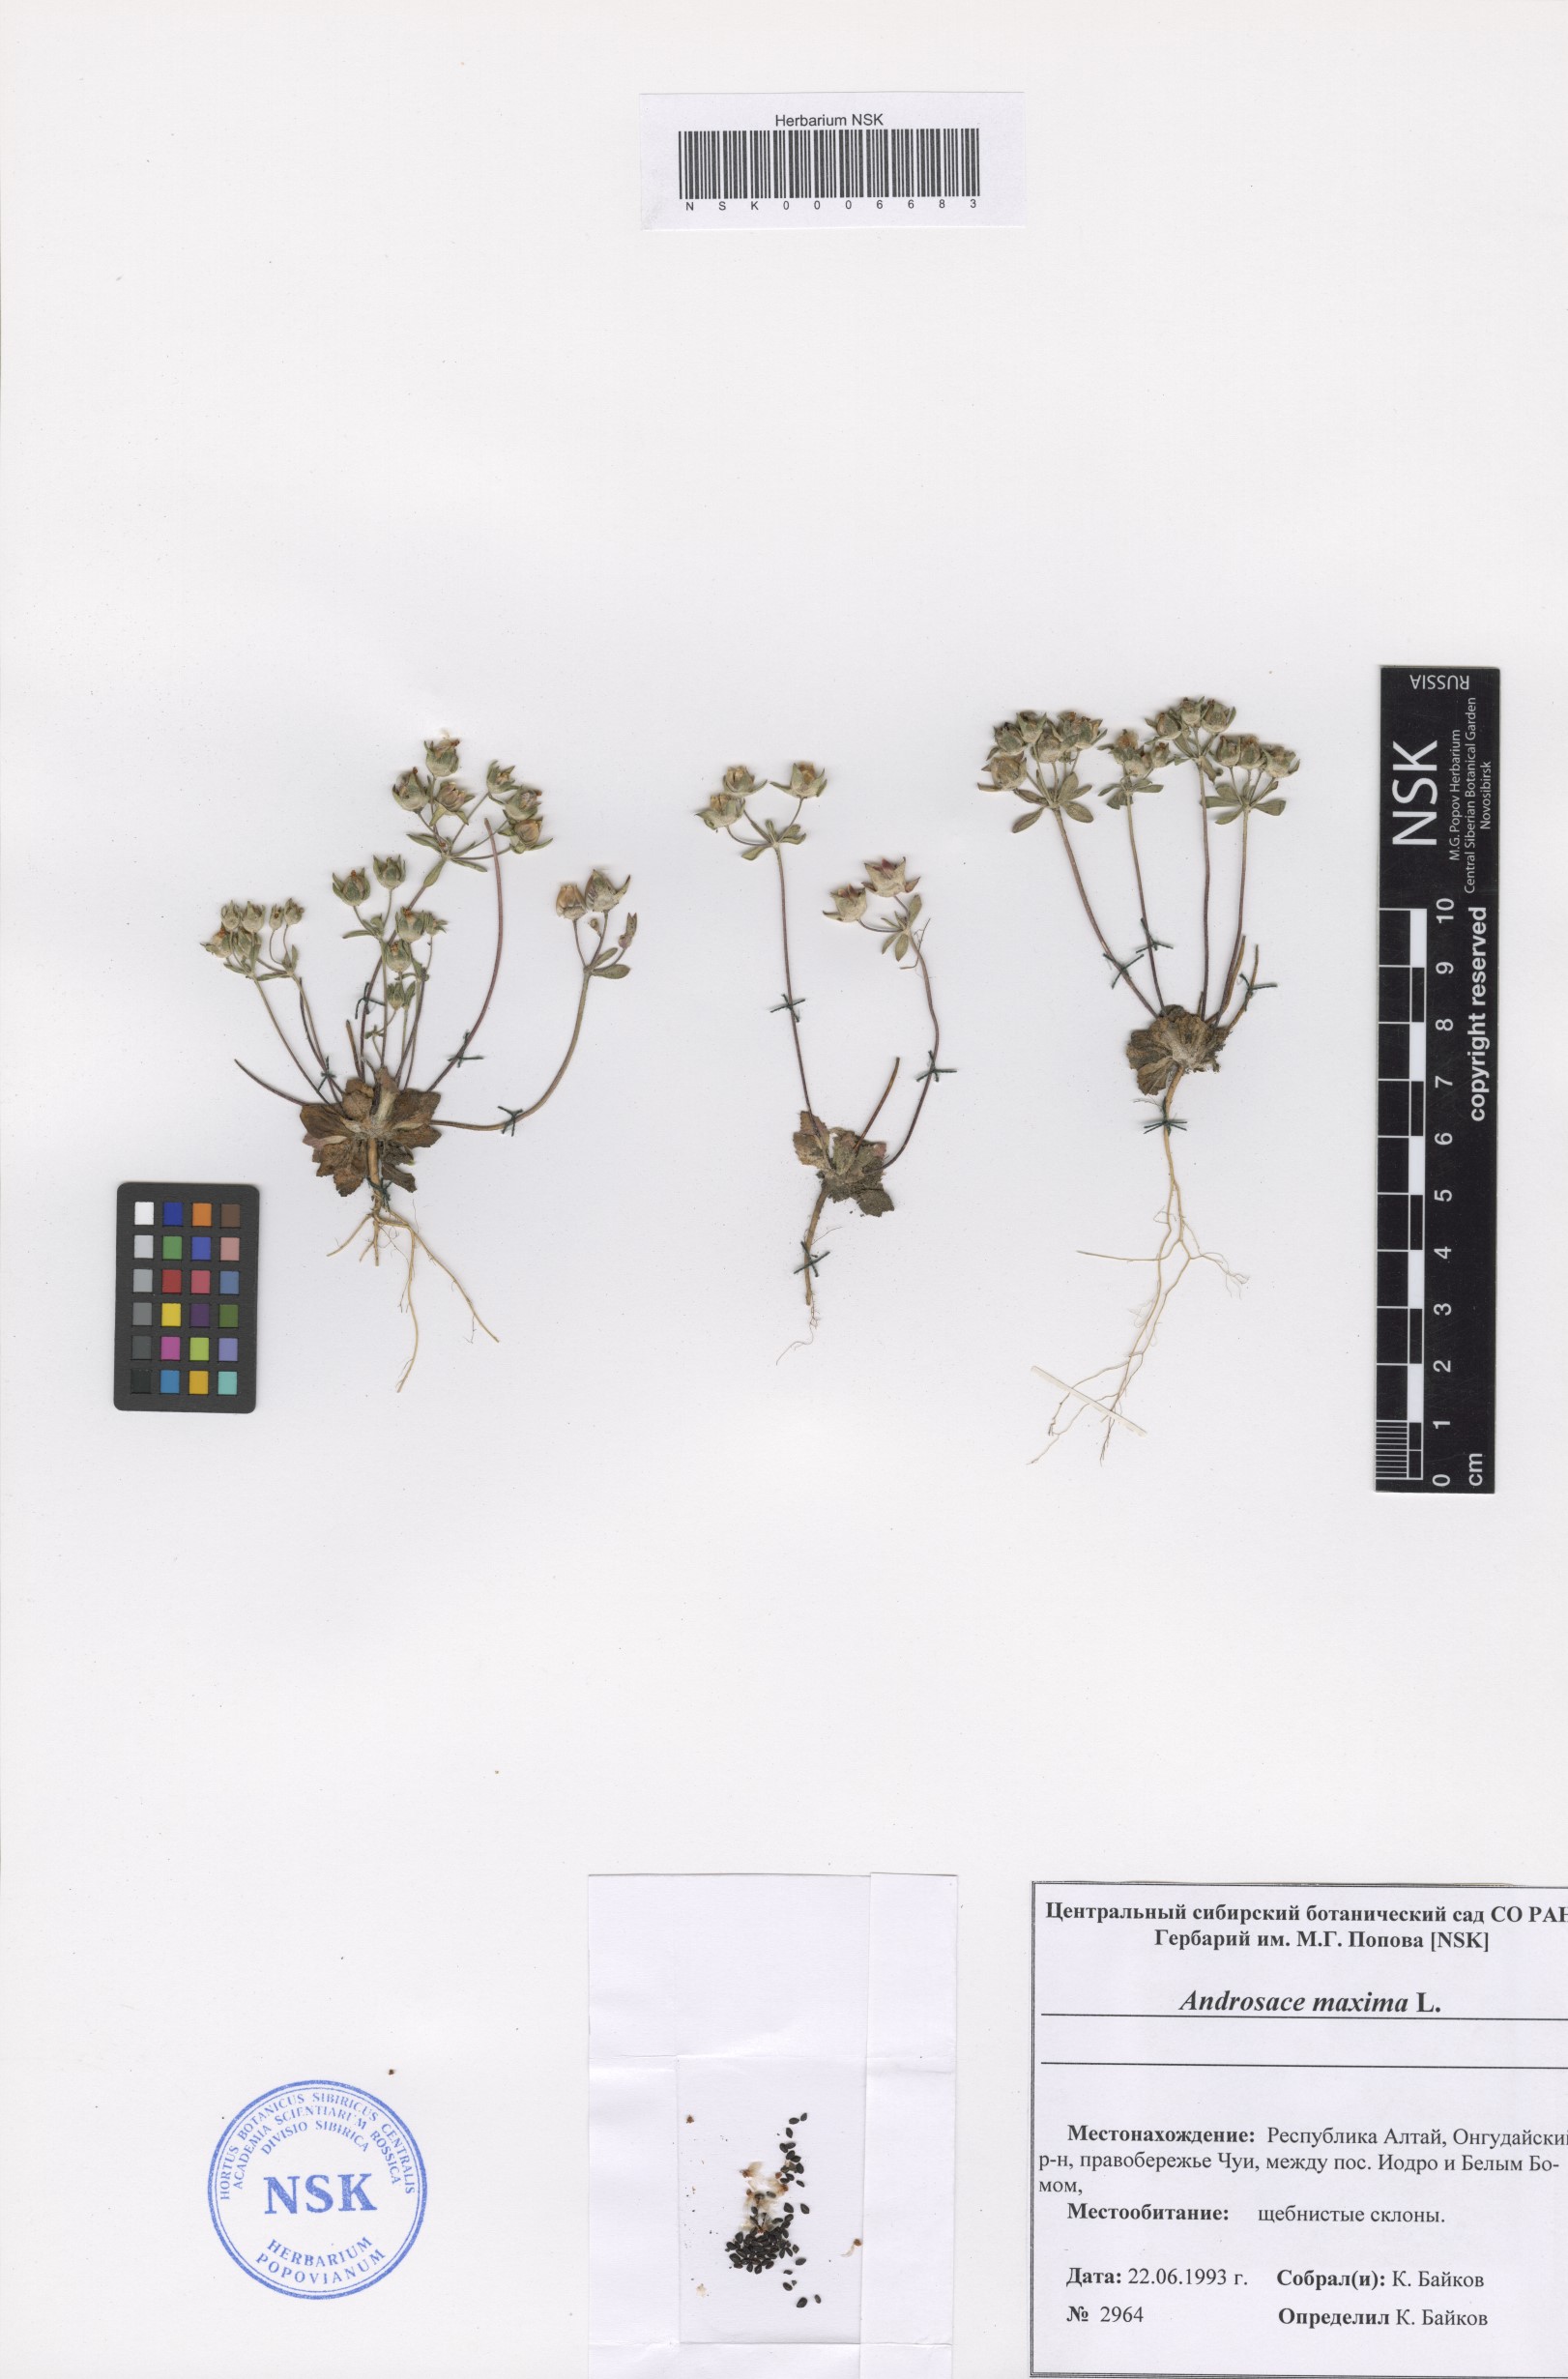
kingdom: Plantae
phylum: Tracheophyta
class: Magnoliopsida
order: Ericales
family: Primulaceae
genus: Androsace
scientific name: Androsace maxima
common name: Annual androsace
